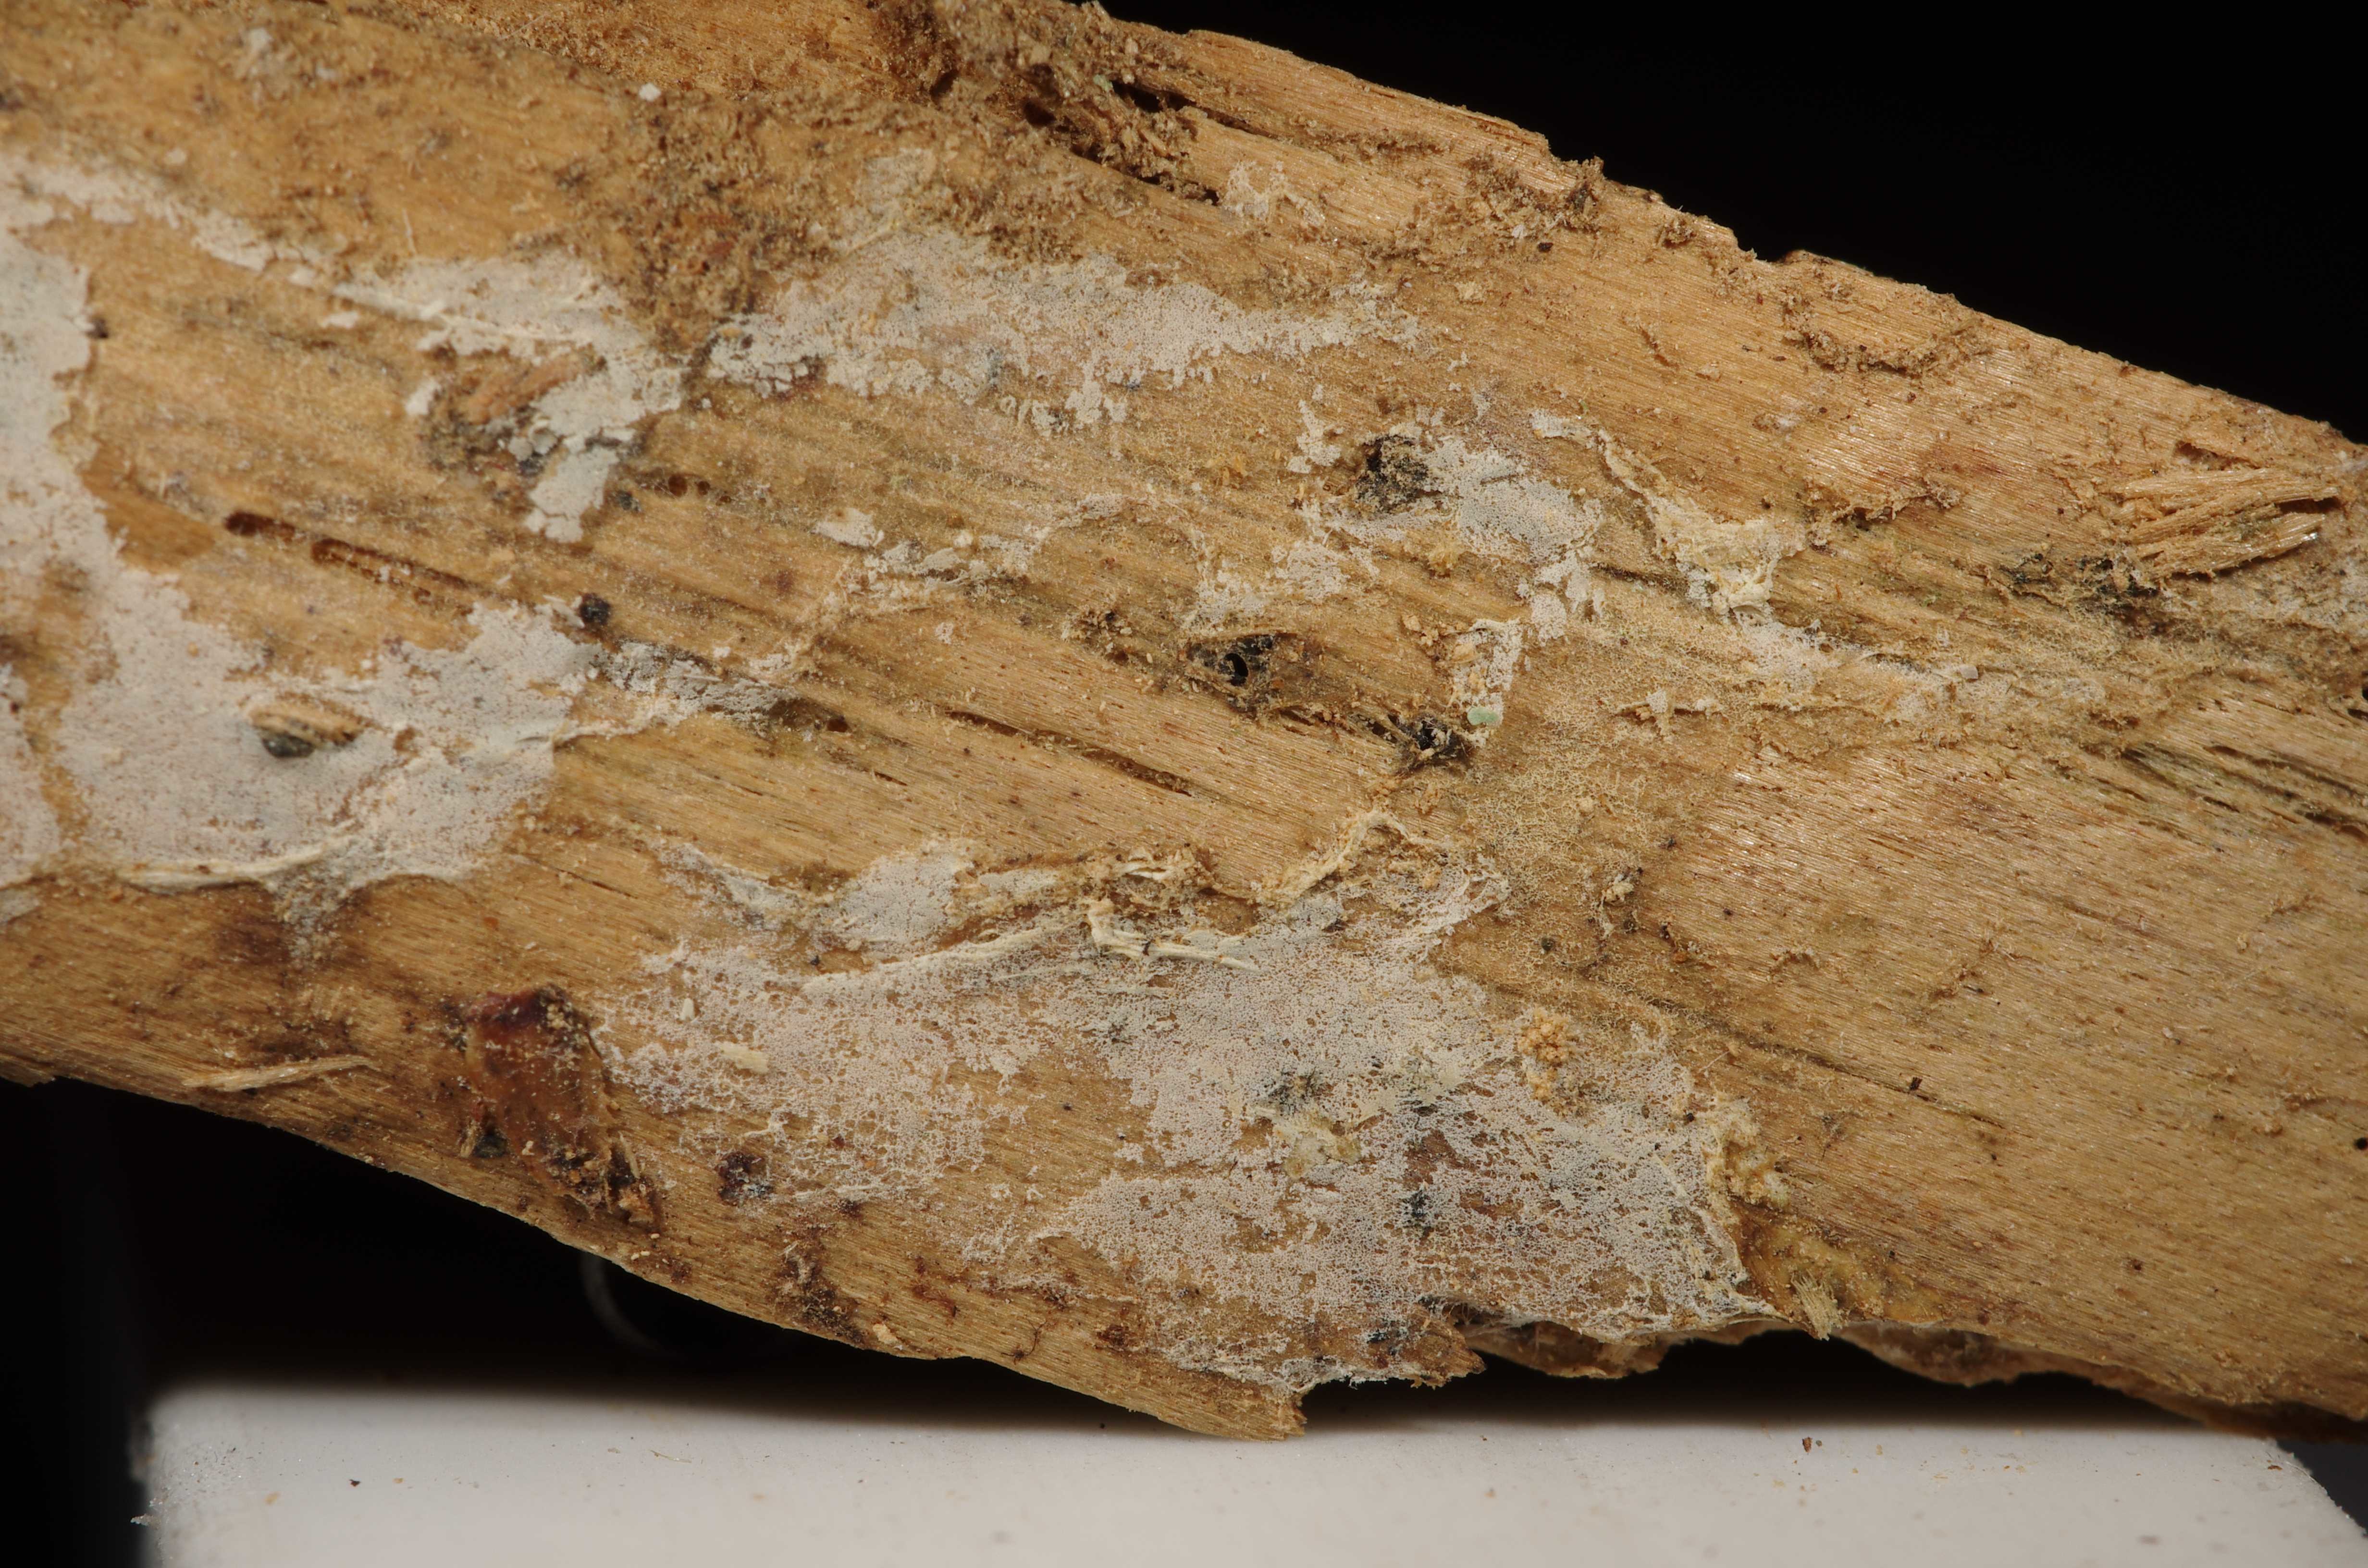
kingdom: Fungi
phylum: Basidiomycota
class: Agaricomycetes
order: Agaricales
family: Hygrophoraceae
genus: Eonema
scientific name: Eonema pyriforme
